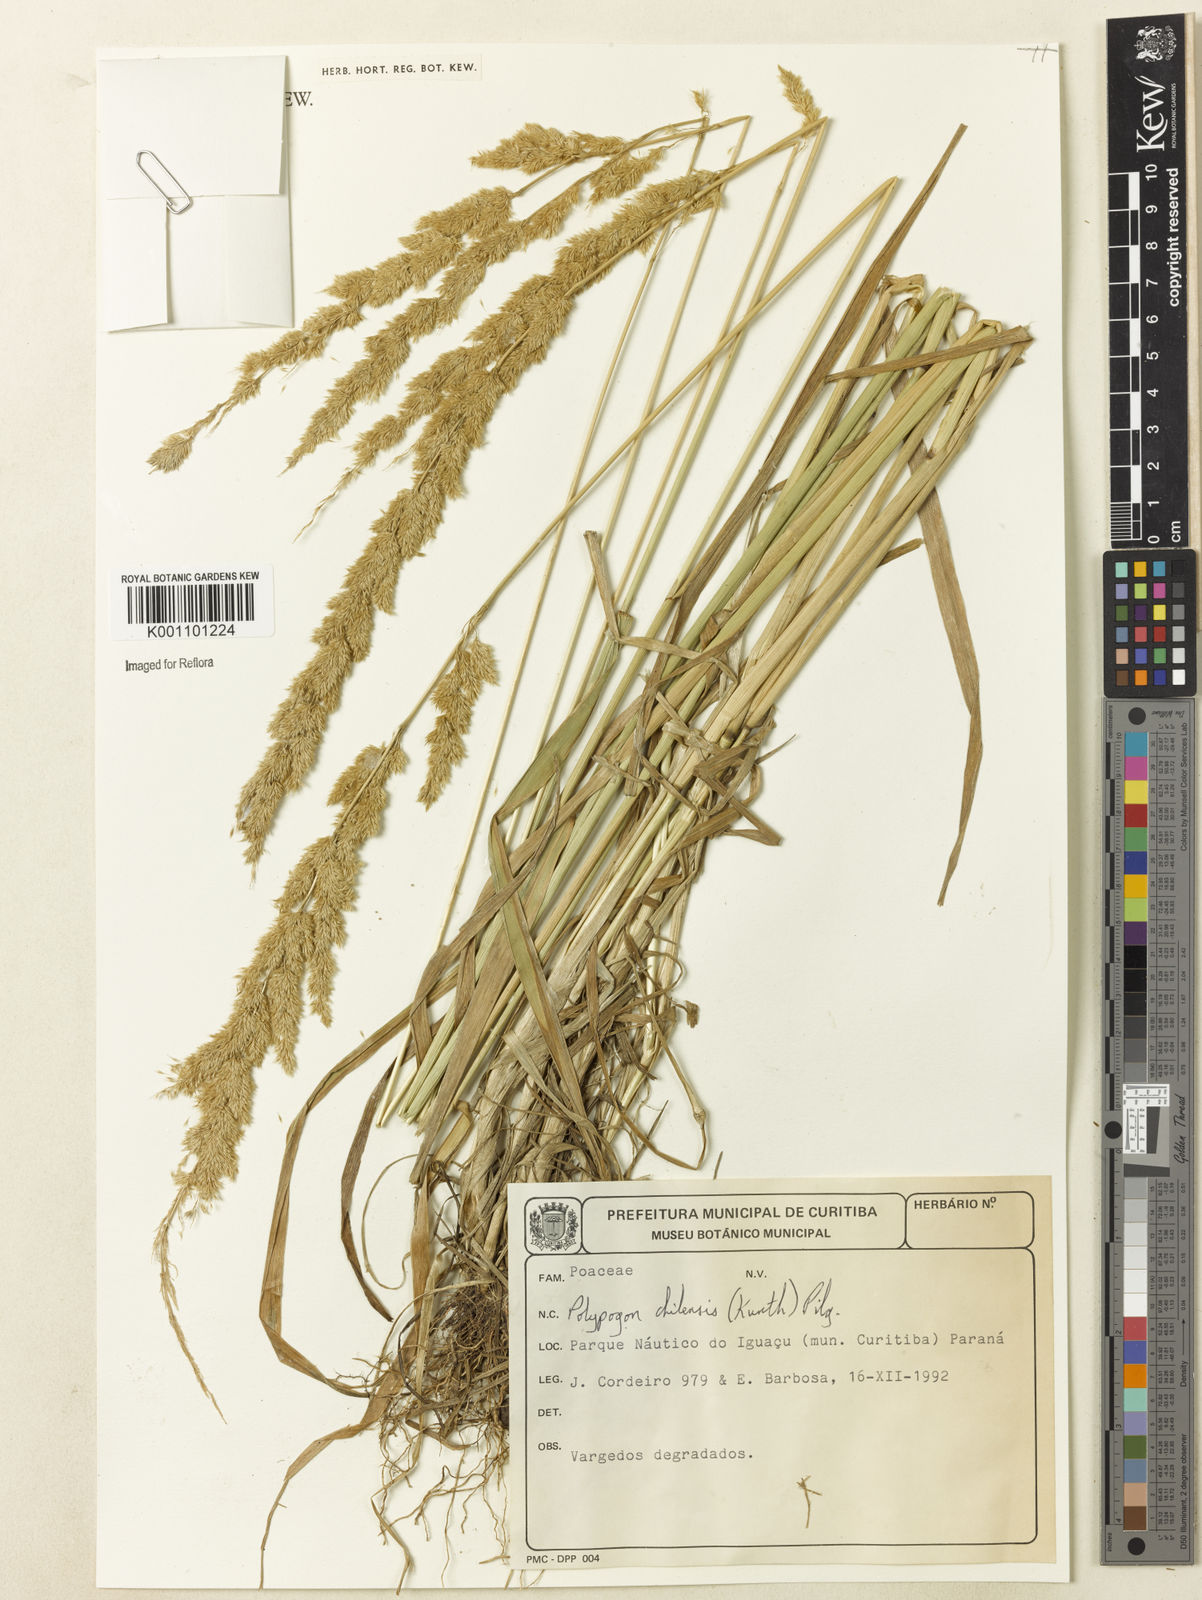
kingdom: Plantae
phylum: Tracheophyta
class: Liliopsida
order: Poales
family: Poaceae
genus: Polypogon
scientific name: Polypogon chilensis
